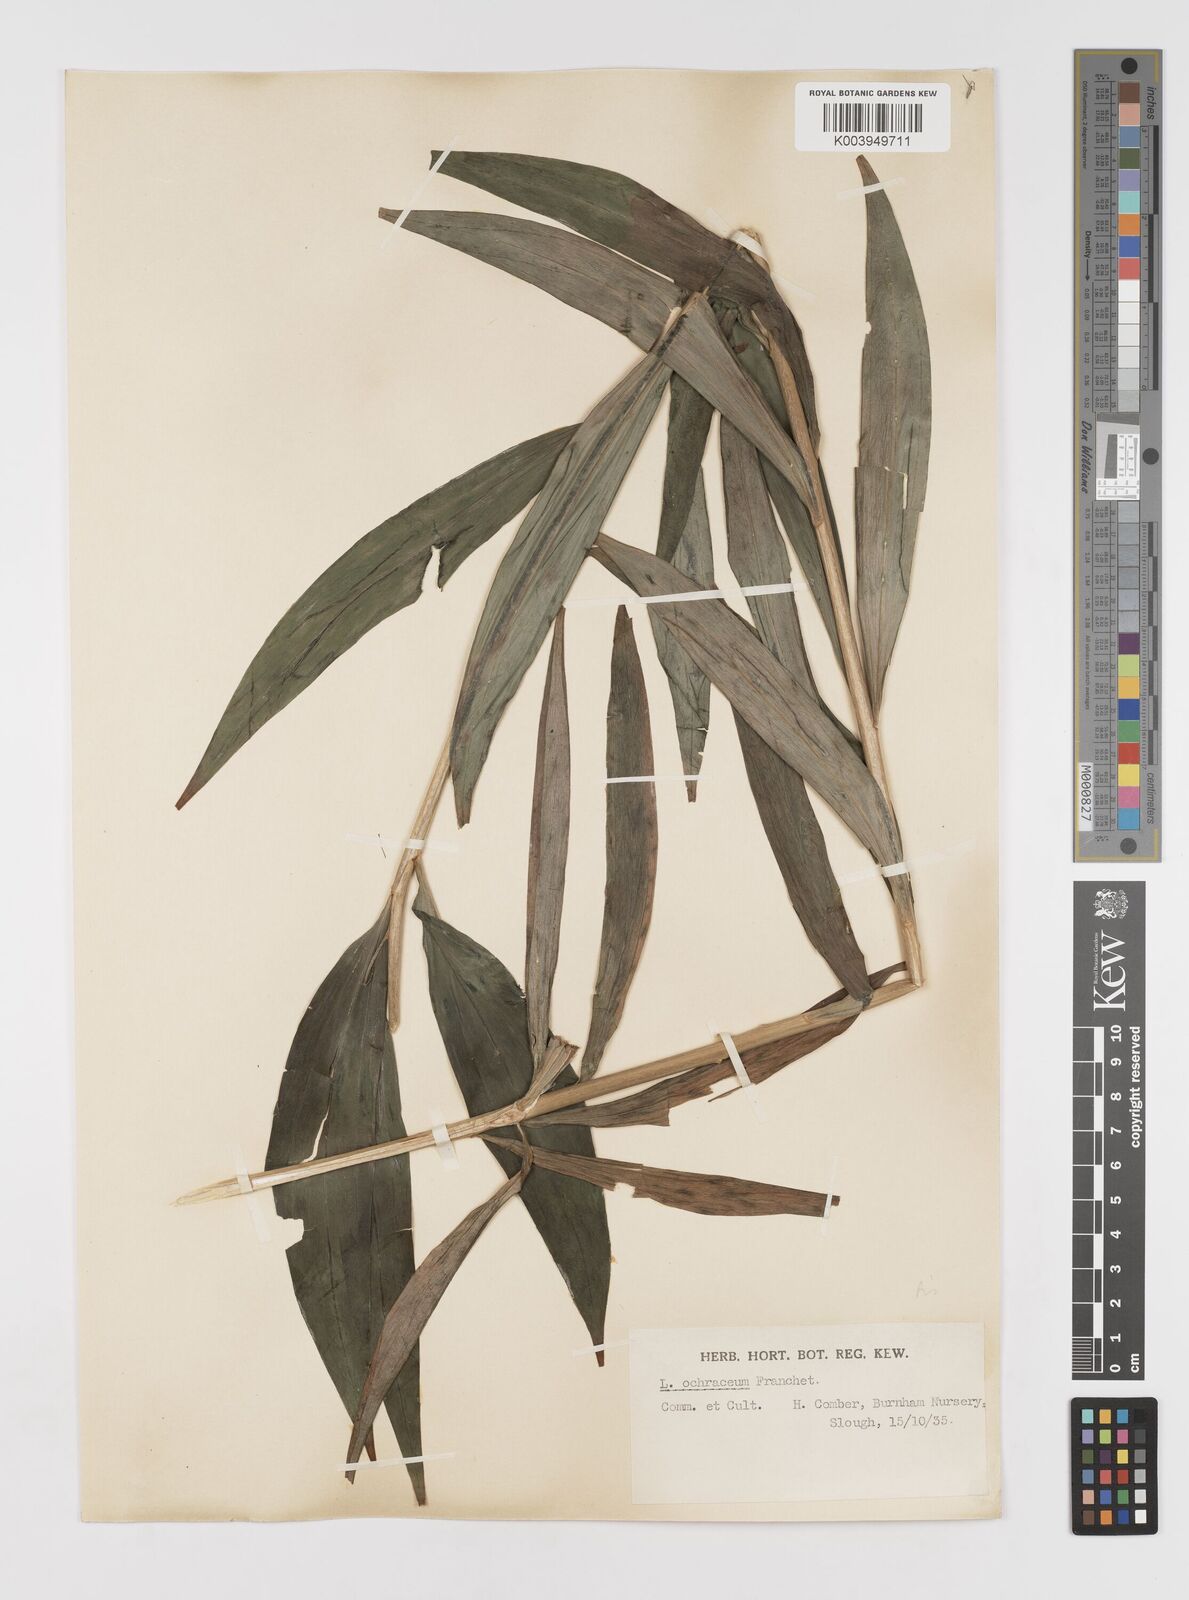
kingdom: Plantae
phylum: Tracheophyta
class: Liliopsida
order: Liliales
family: Liliaceae
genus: Lilium
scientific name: Lilium primulinum
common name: Ochre lily
